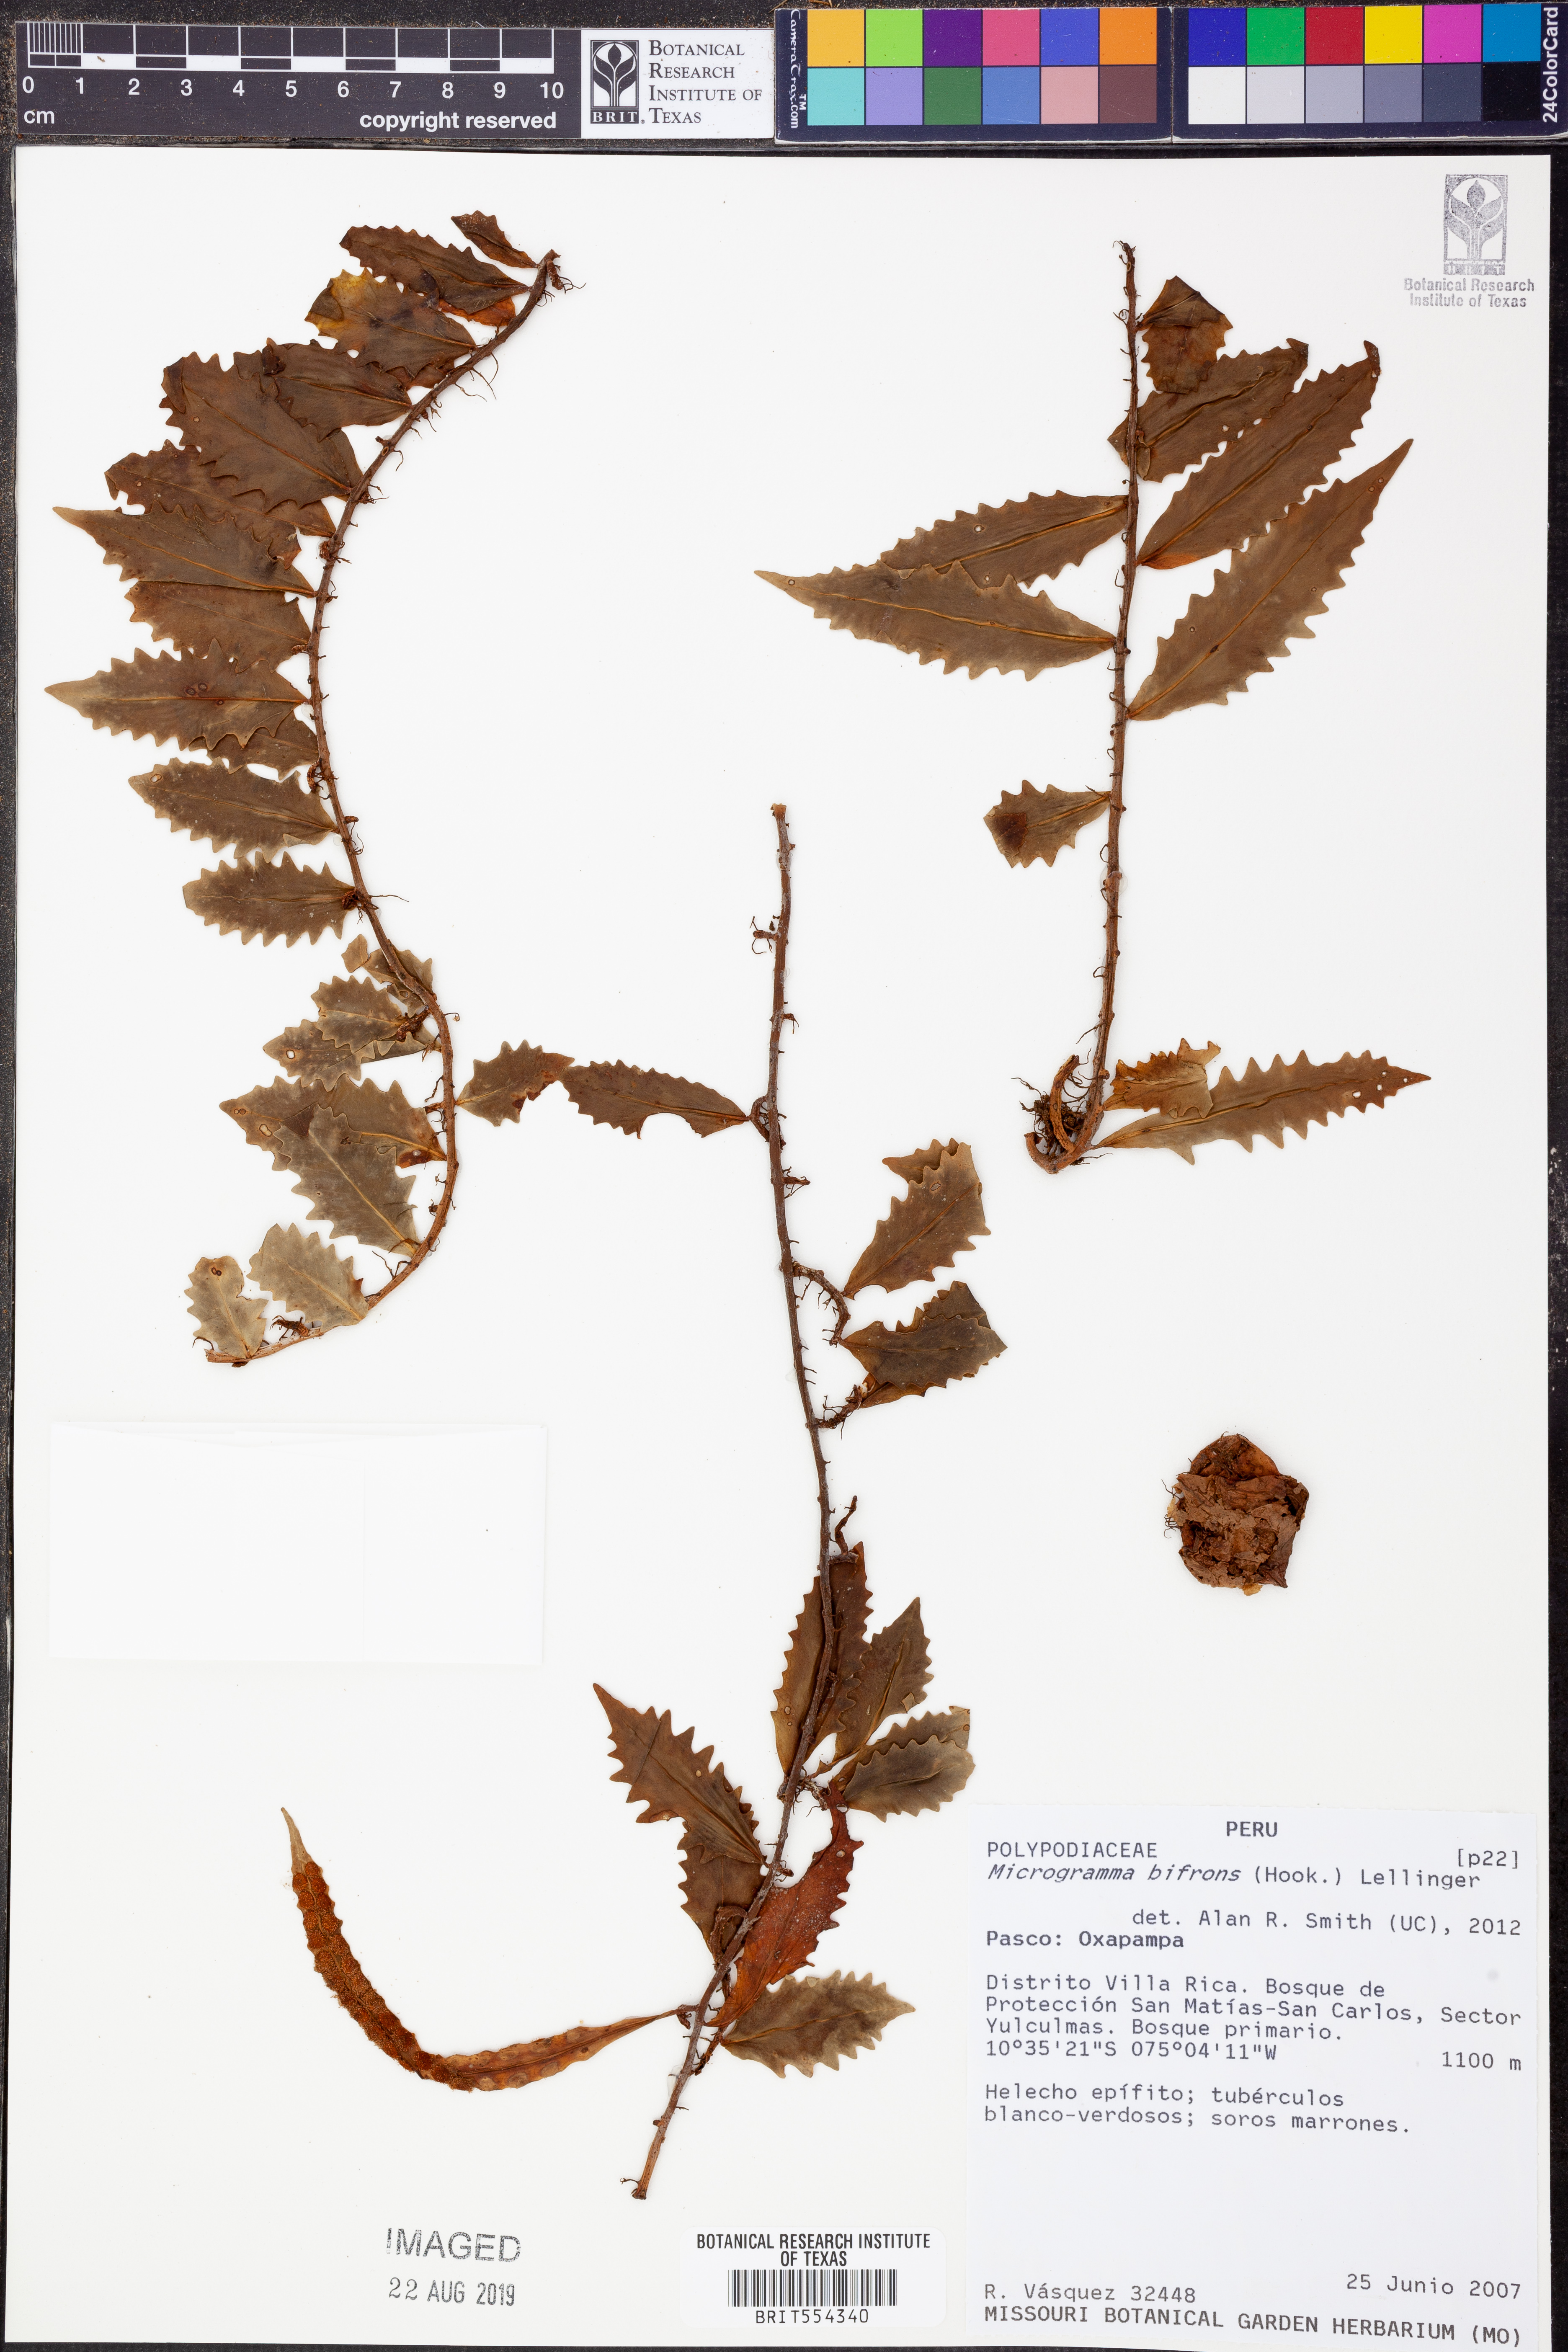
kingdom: Plantae
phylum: Tracheophyta
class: Polypodiopsida
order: Polypodiales
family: Polypodiaceae
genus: Microgramma
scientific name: Microgramma bifrons
